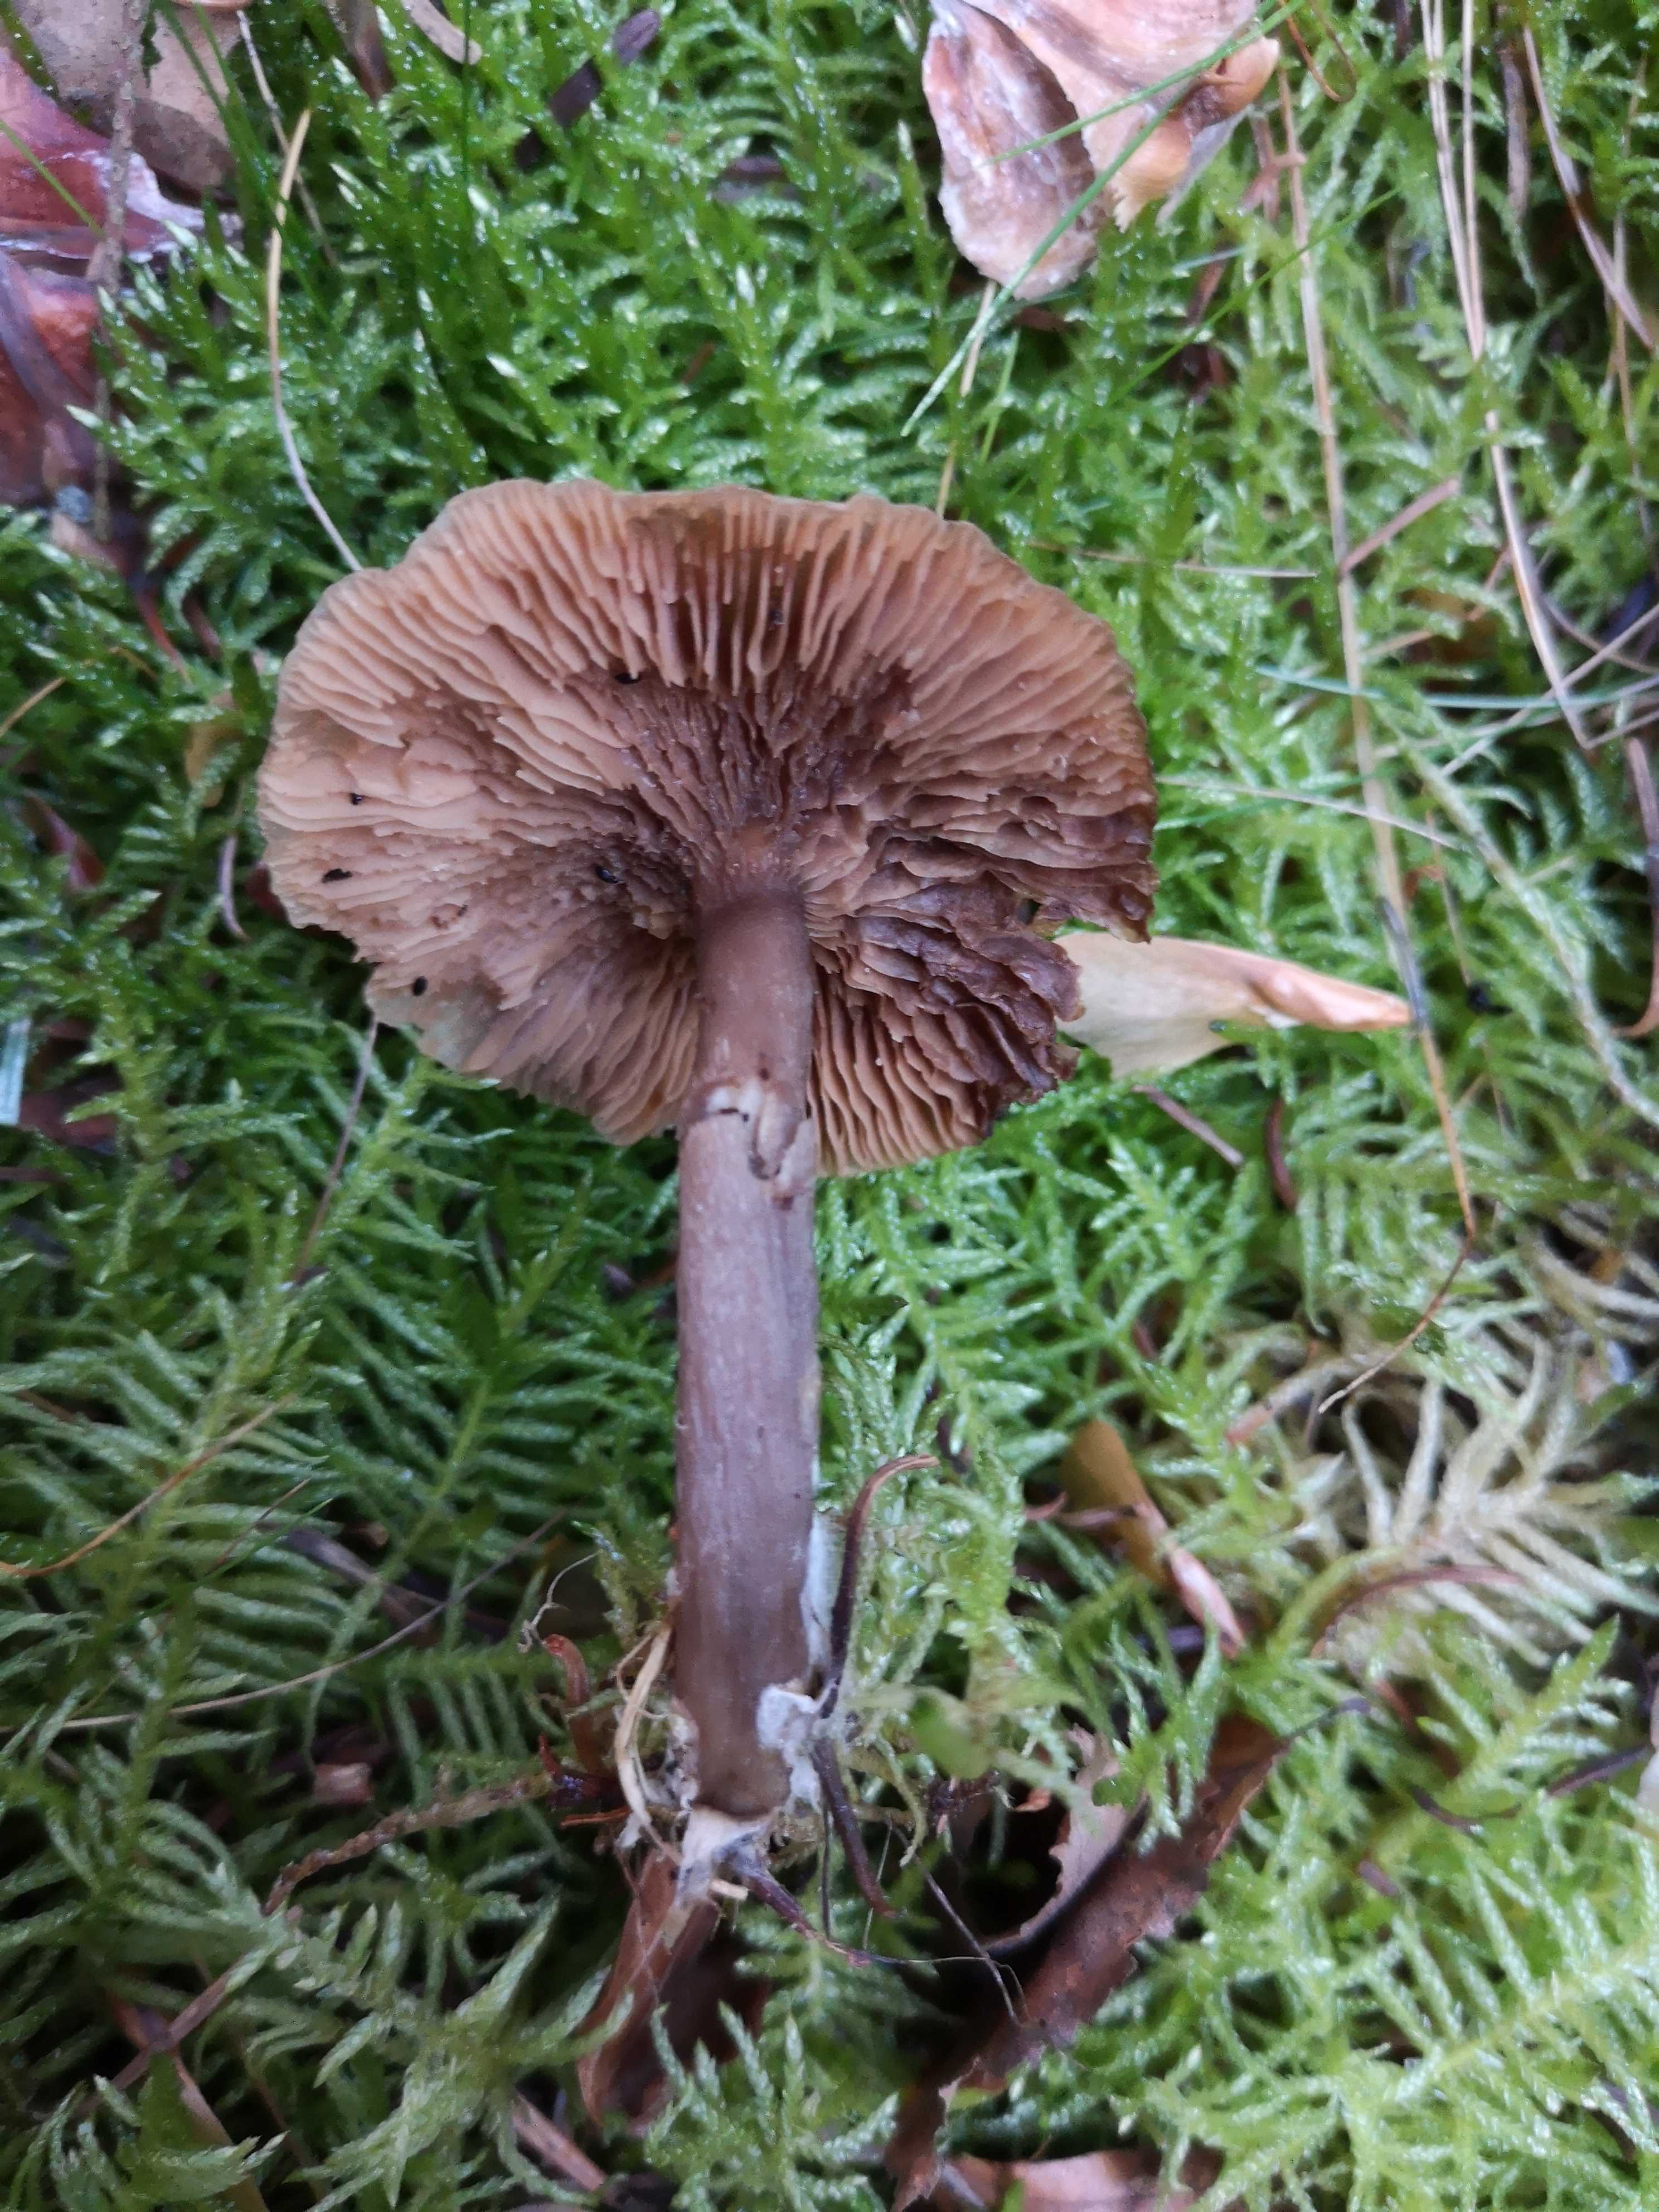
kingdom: Fungi
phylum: Basidiomycota
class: Agaricomycetes
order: Agaricales
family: Pseudoclitocybaceae
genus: Pseudoclitocybe
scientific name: Pseudoclitocybe cyathiformis
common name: almindelig bægertragthat
